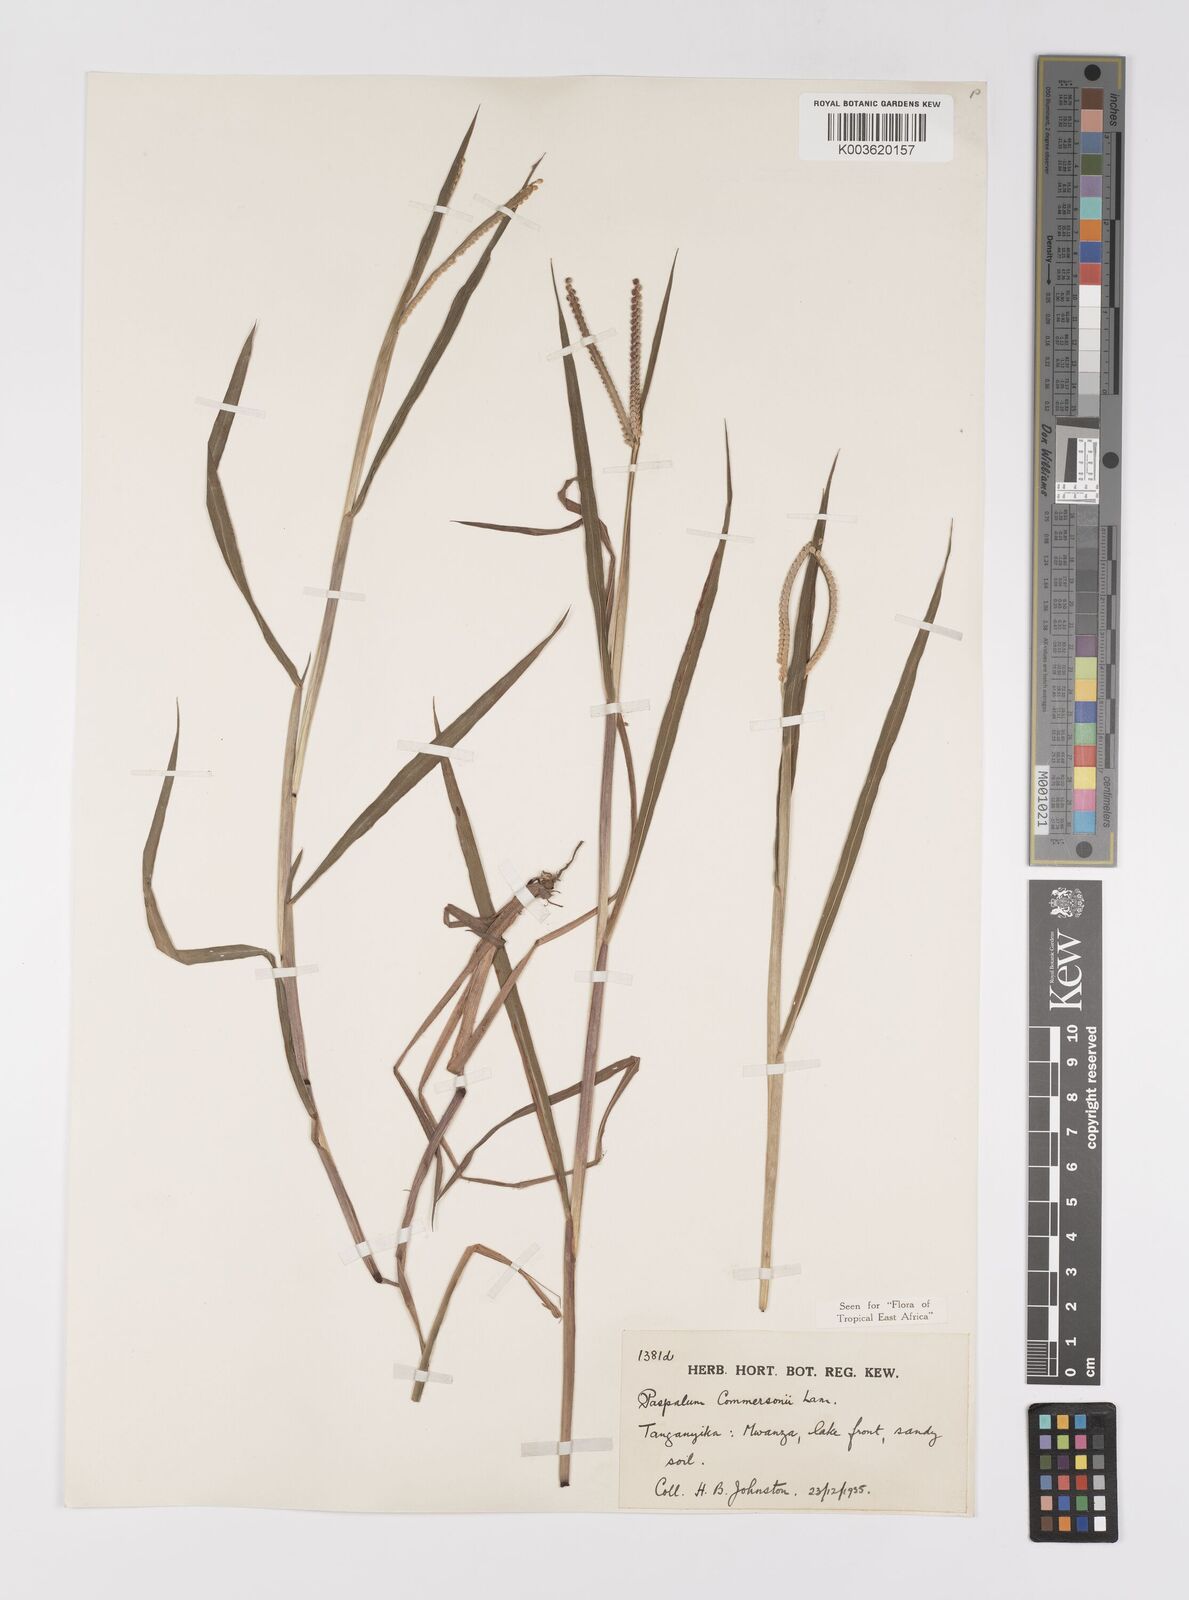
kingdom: Plantae
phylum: Tracheophyta
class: Liliopsida
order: Poales
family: Poaceae
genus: Paspalum
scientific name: Paspalum scrobiculatum
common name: Kodo millet
